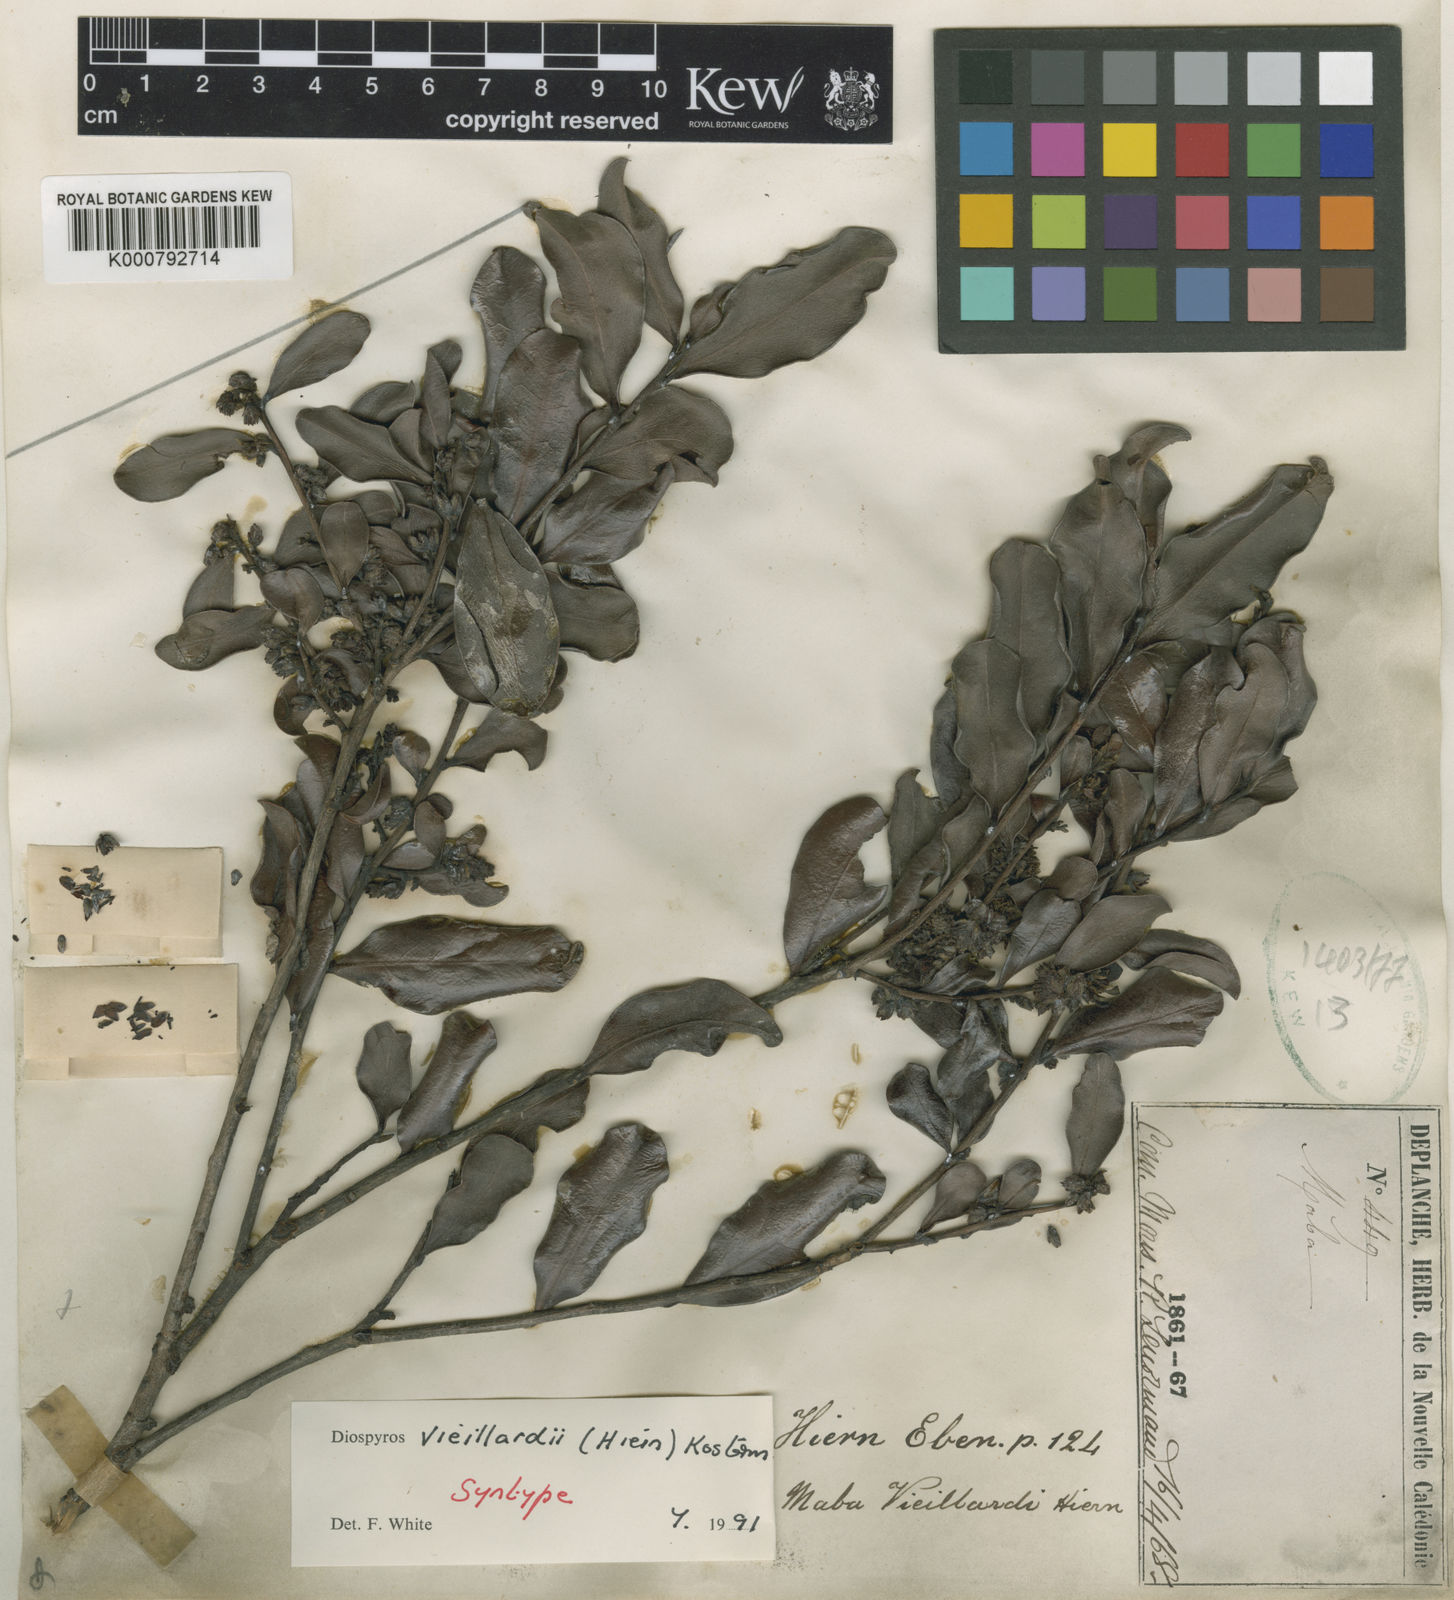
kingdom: Plantae
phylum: Tracheophyta
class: Magnoliopsida
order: Ericales
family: Ebenaceae
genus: Diospyros
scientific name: Diospyros vieillardii
